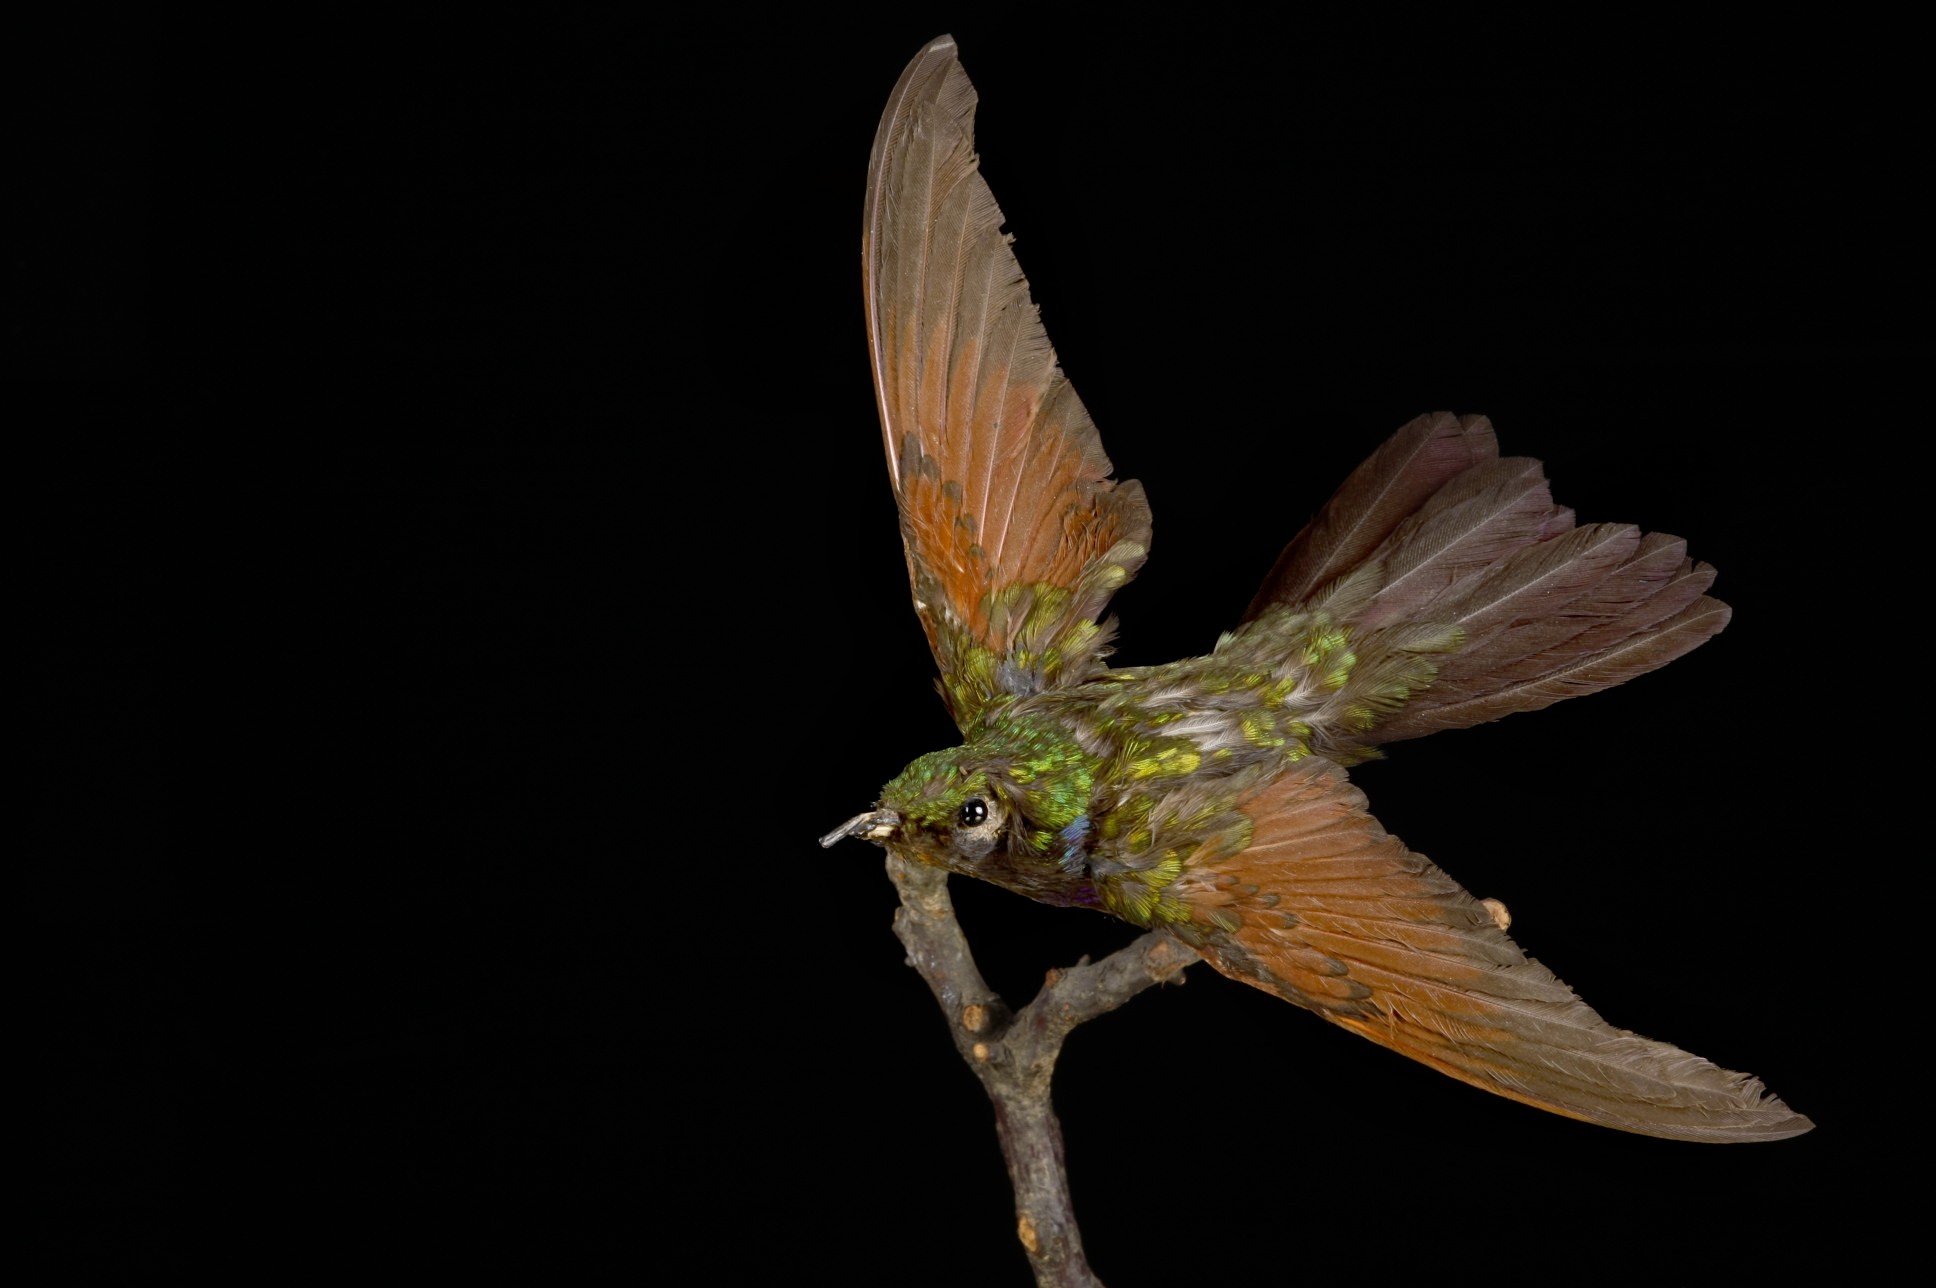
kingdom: Animalia
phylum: Chordata
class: Aves
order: Apodiformes
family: Trochilidae
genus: Lamprolaima
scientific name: Lamprolaima rhami
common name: Garnet-throated hummingbird
